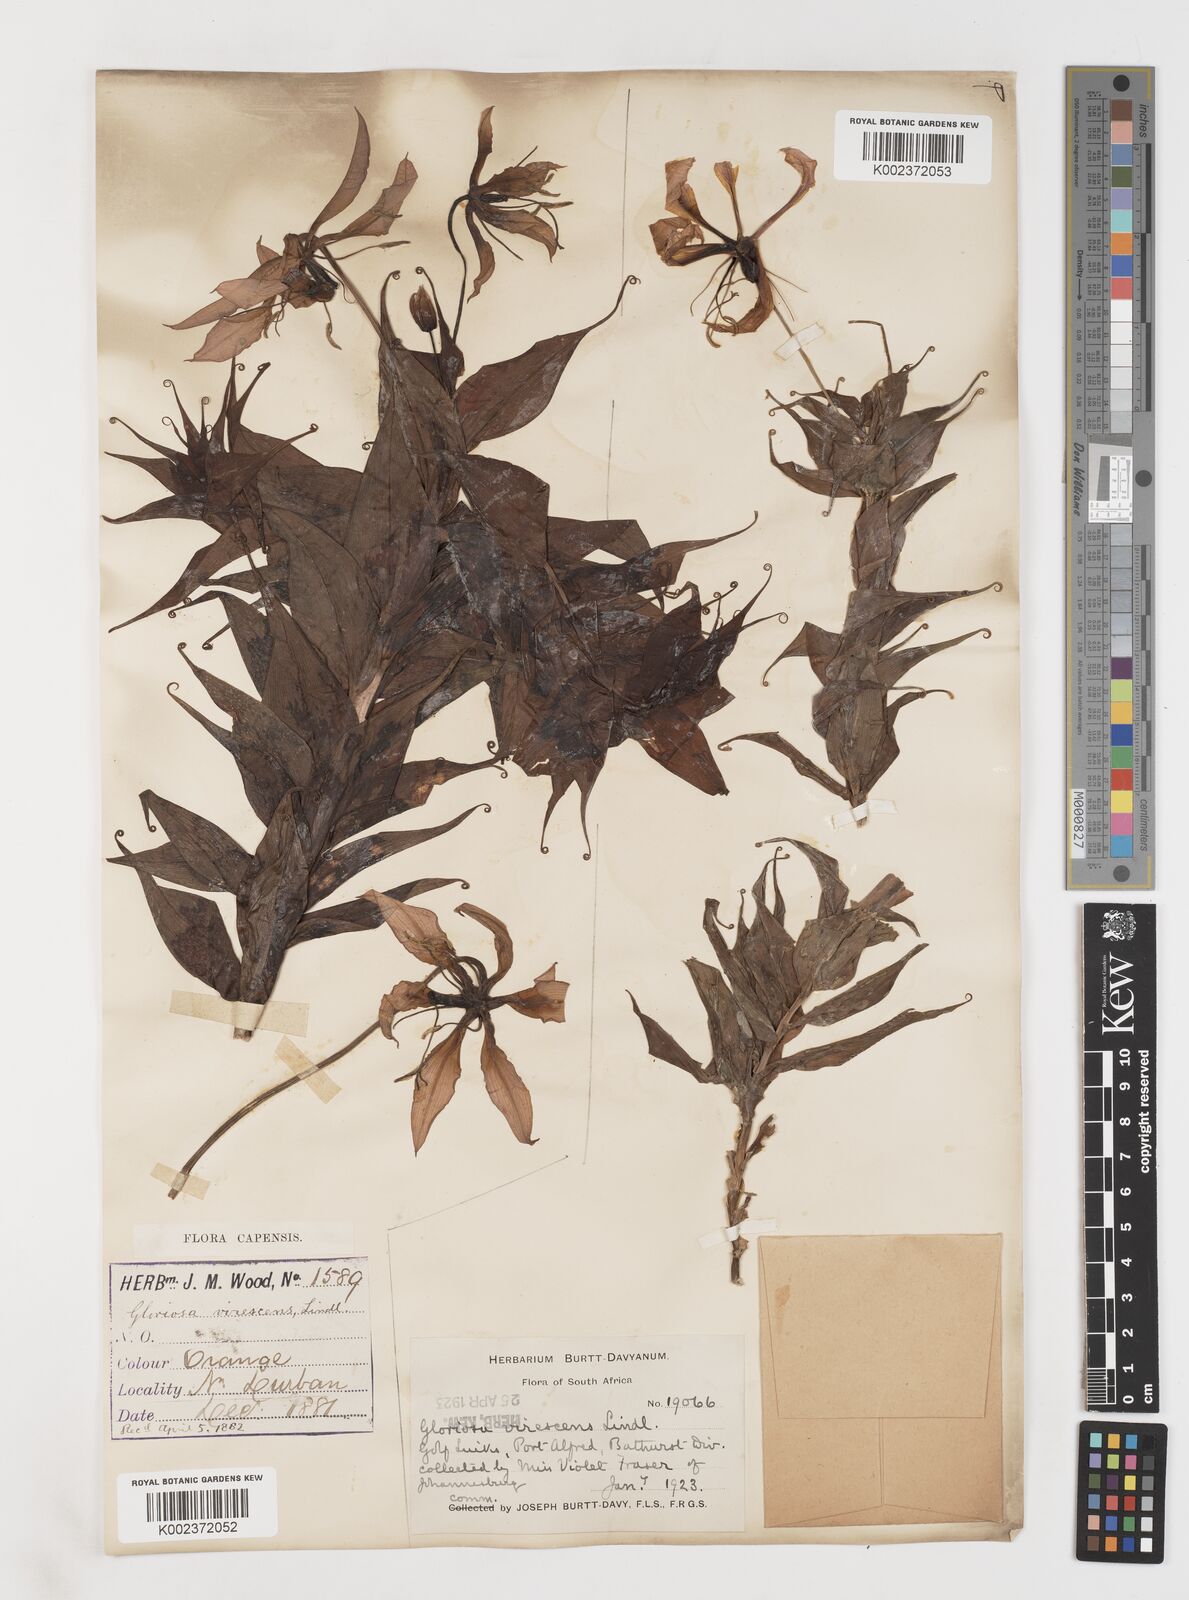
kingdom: Plantae
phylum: Tracheophyta
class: Liliopsida
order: Liliales
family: Colchicaceae
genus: Gloriosa
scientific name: Gloriosa simplex
